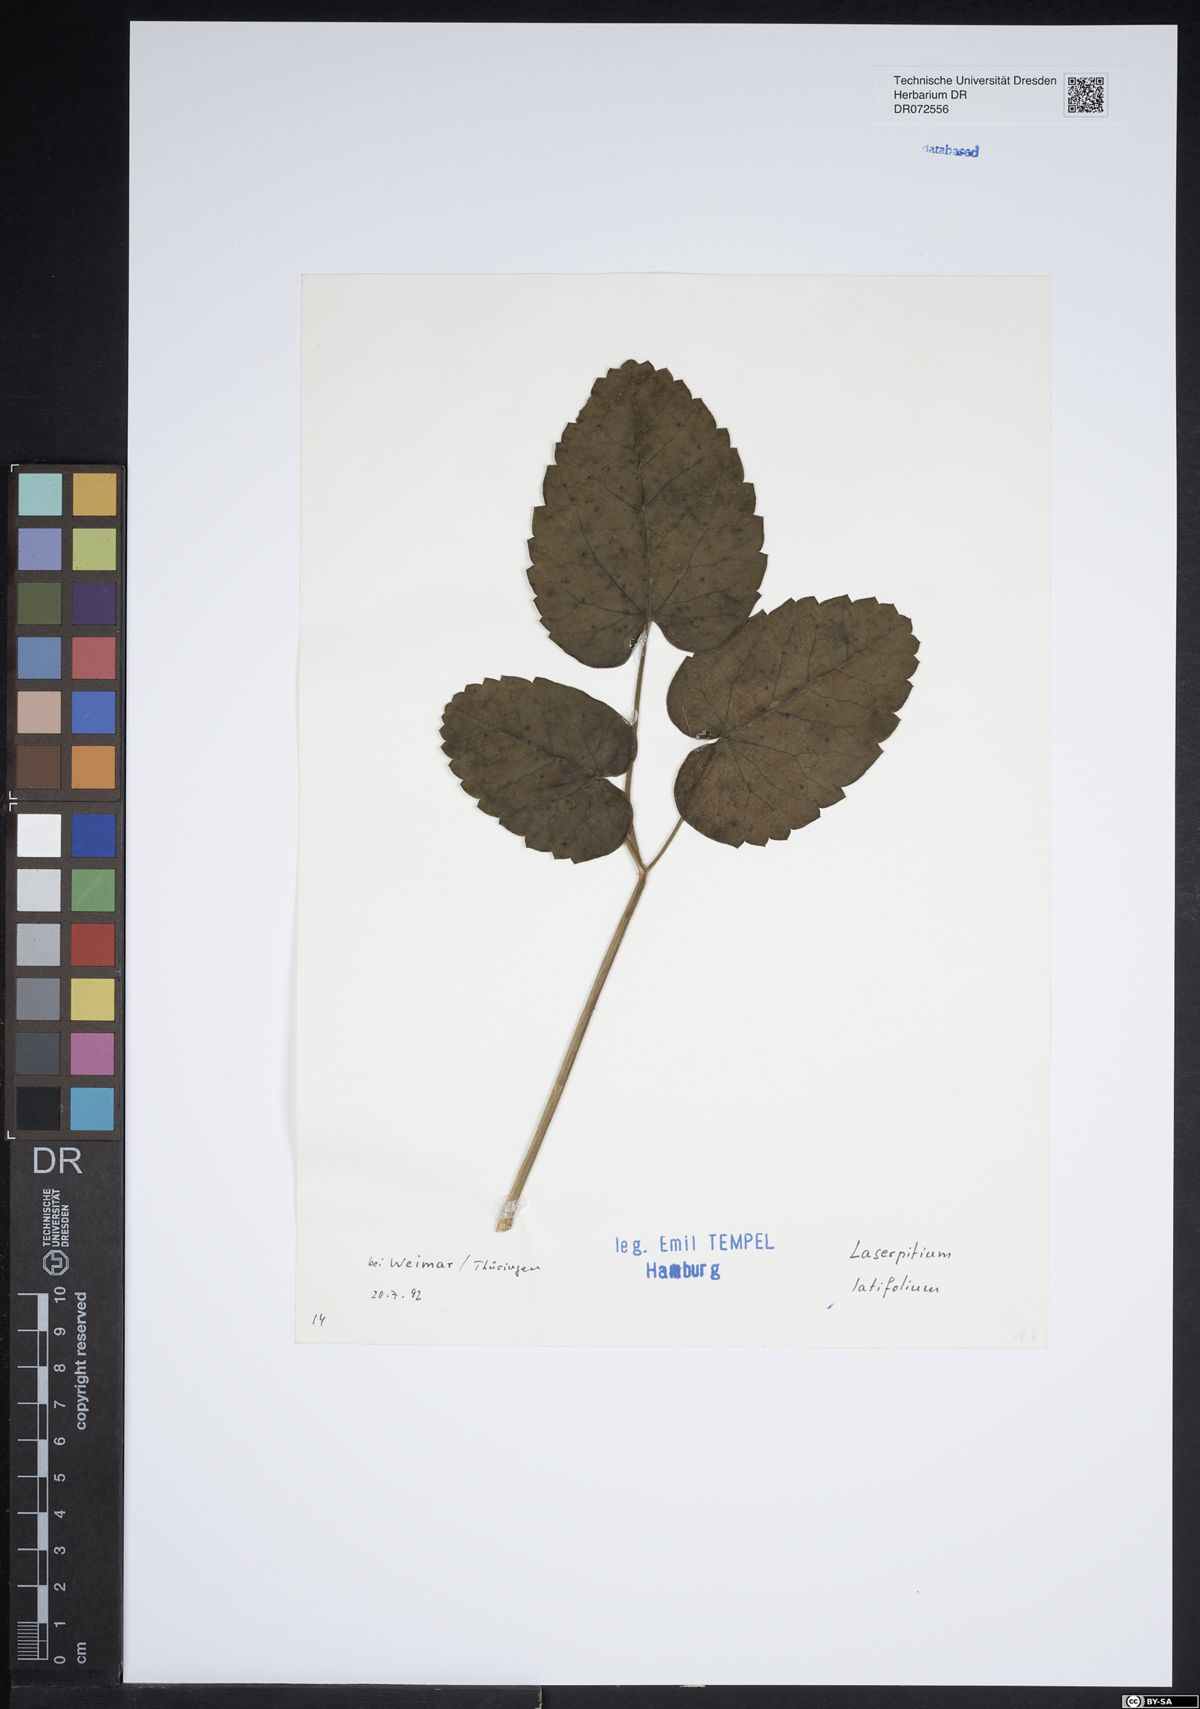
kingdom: Plantae
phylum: Tracheophyta
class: Magnoliopsida
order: Apiales
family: Apiaceae
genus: Laserpitium
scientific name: Laserpitium latifolium
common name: Broadleaf sermountain
